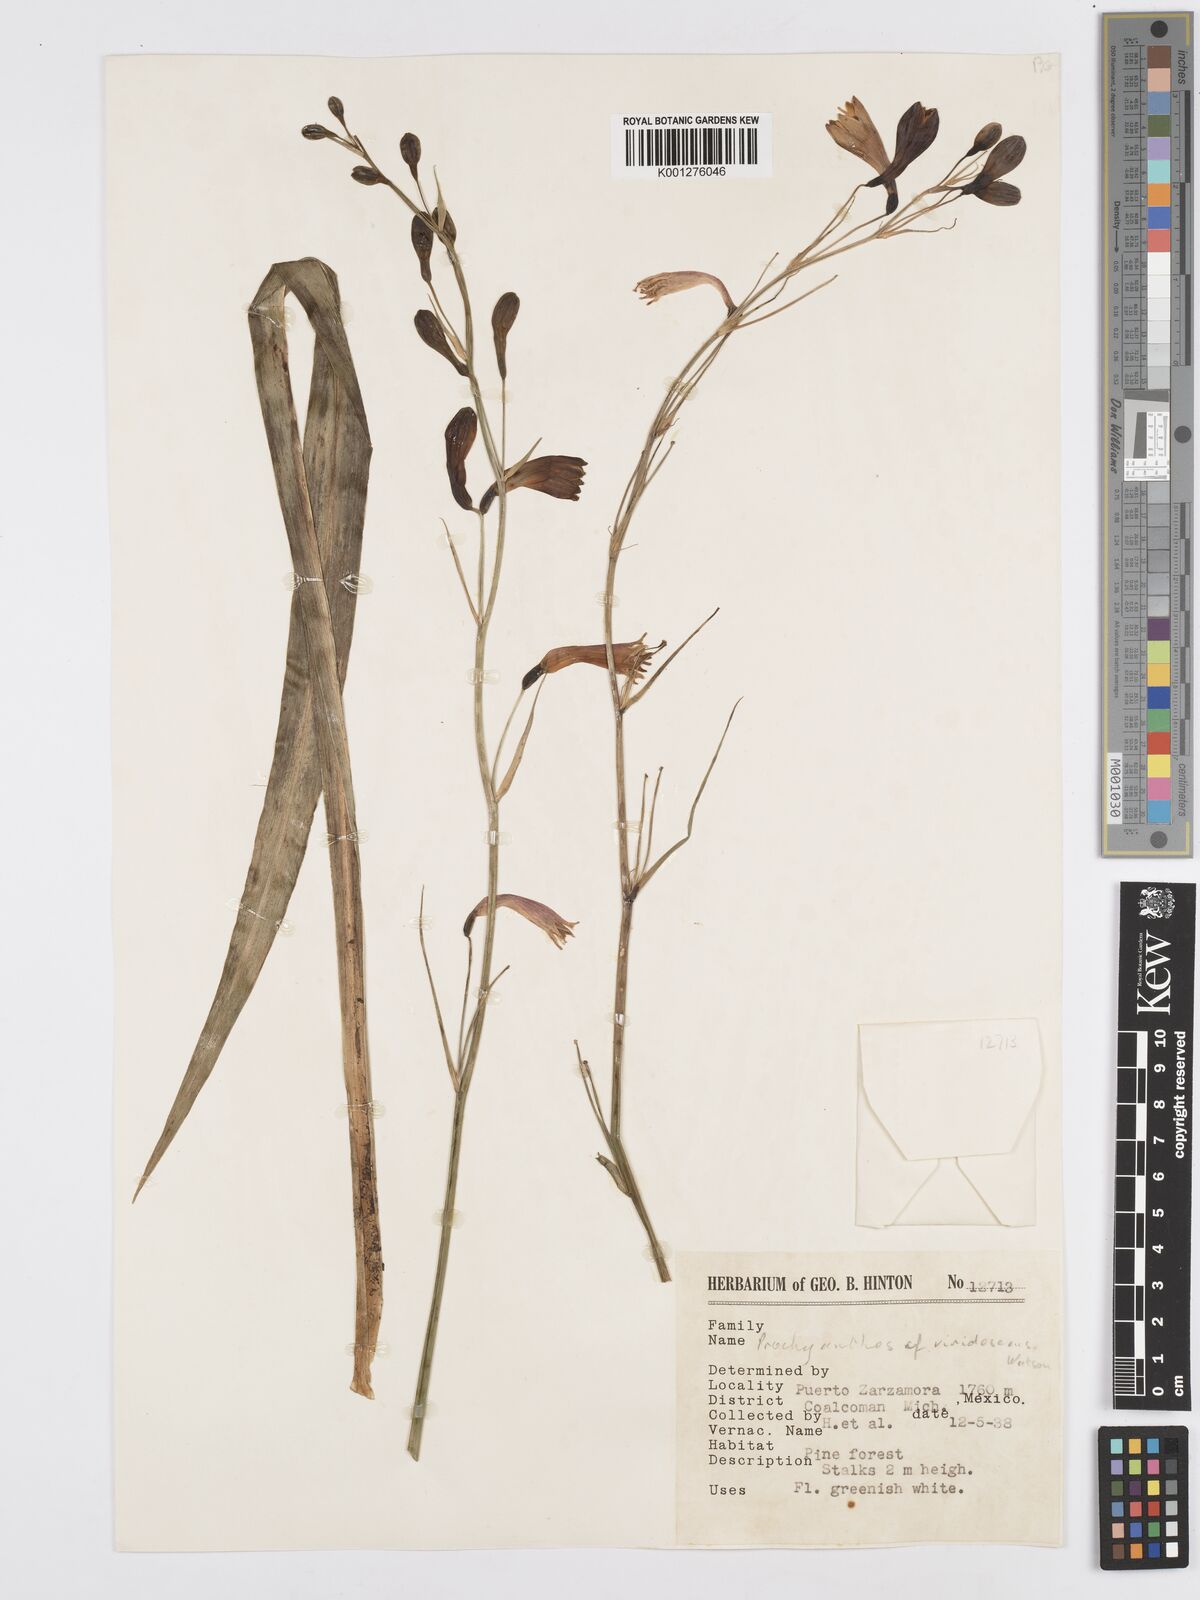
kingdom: Plantae
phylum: Tracheophyta
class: Liliopsida
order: Asparagales
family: Asparagaceae
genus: Agave
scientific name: Agave
